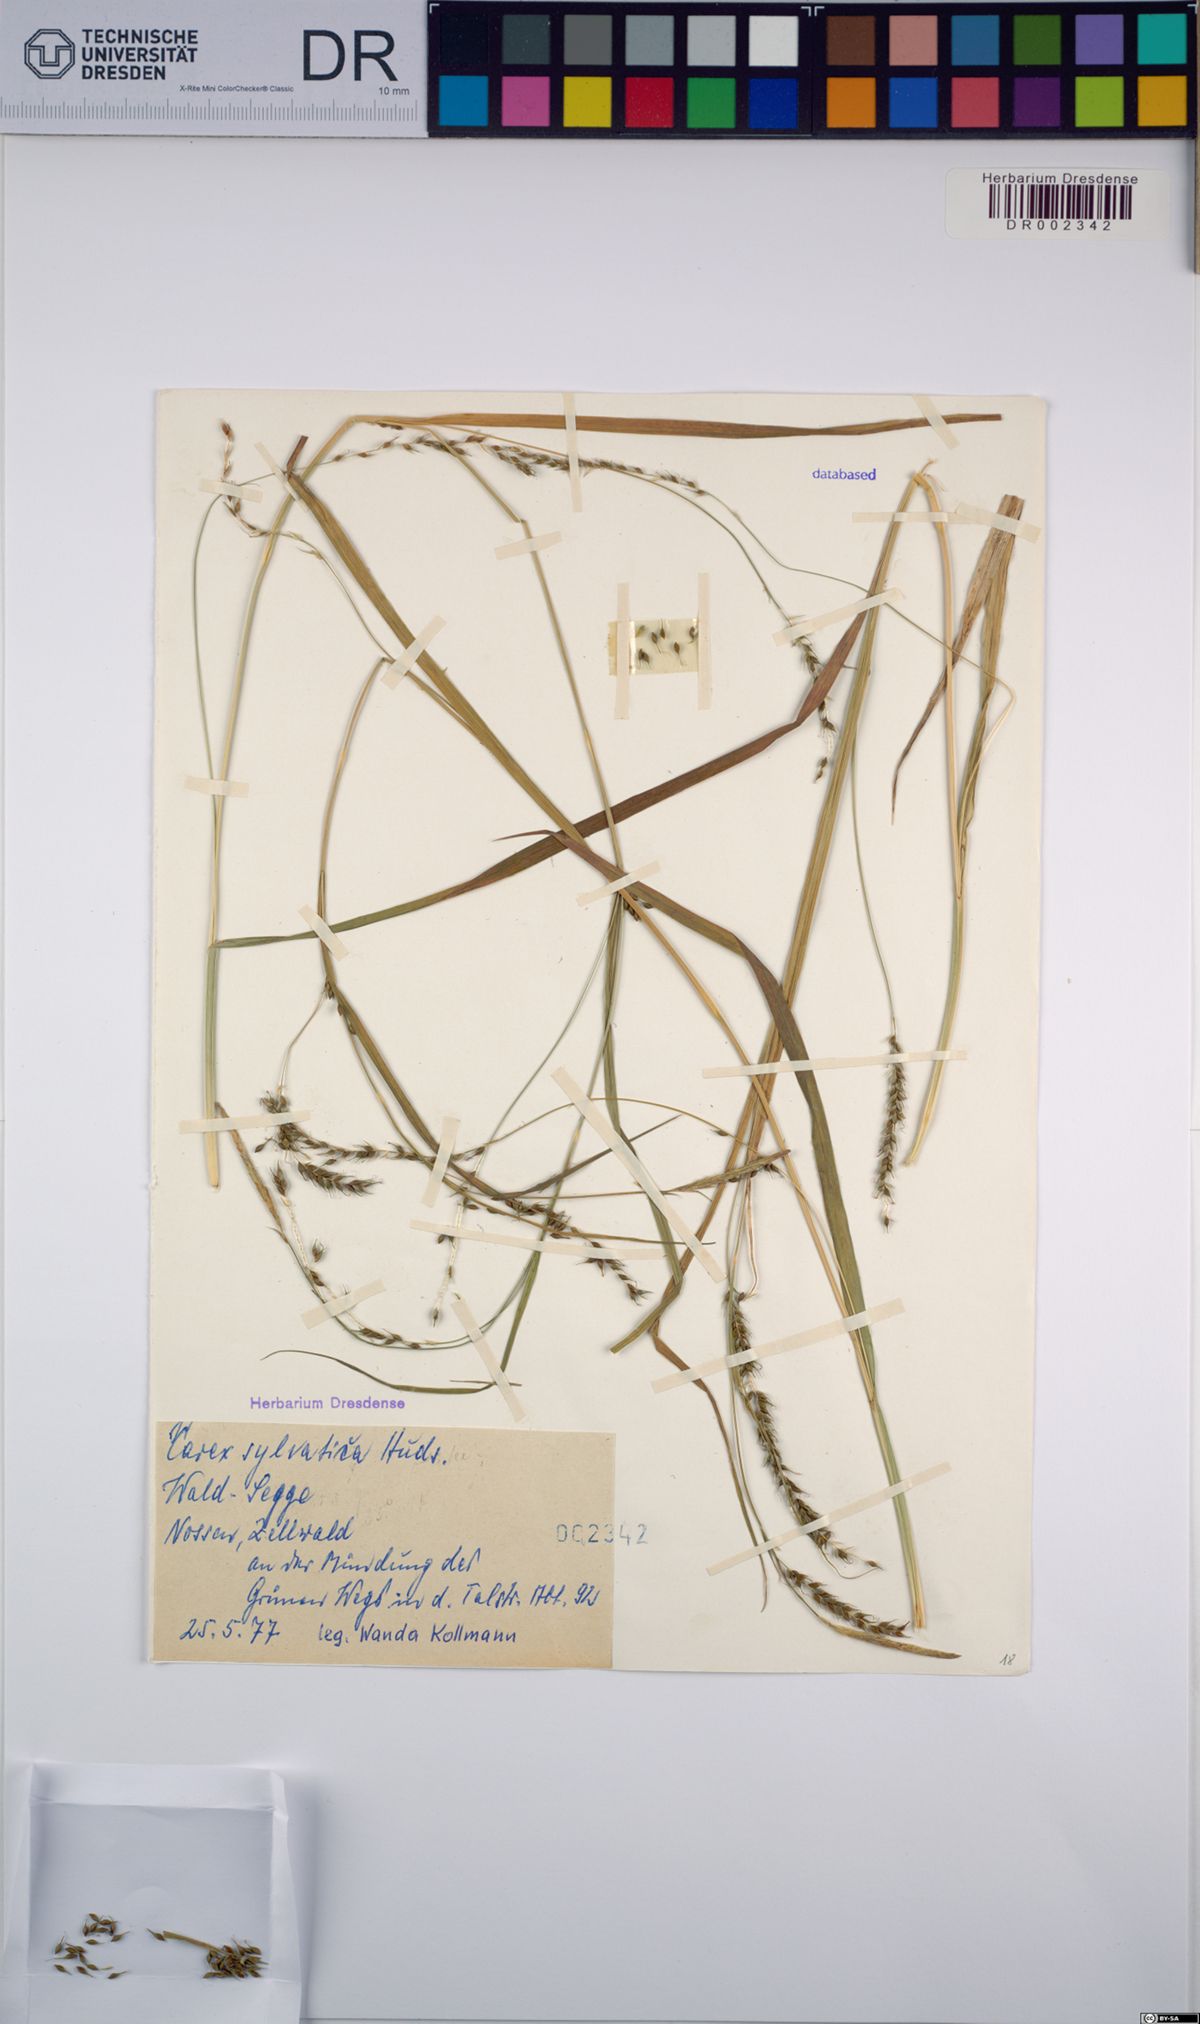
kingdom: Plantae
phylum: Tracheophyta
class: Liliopsida
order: Poales
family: Cyperaceae
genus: Carex
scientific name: Carex sylvatica
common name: Wood-sedge
